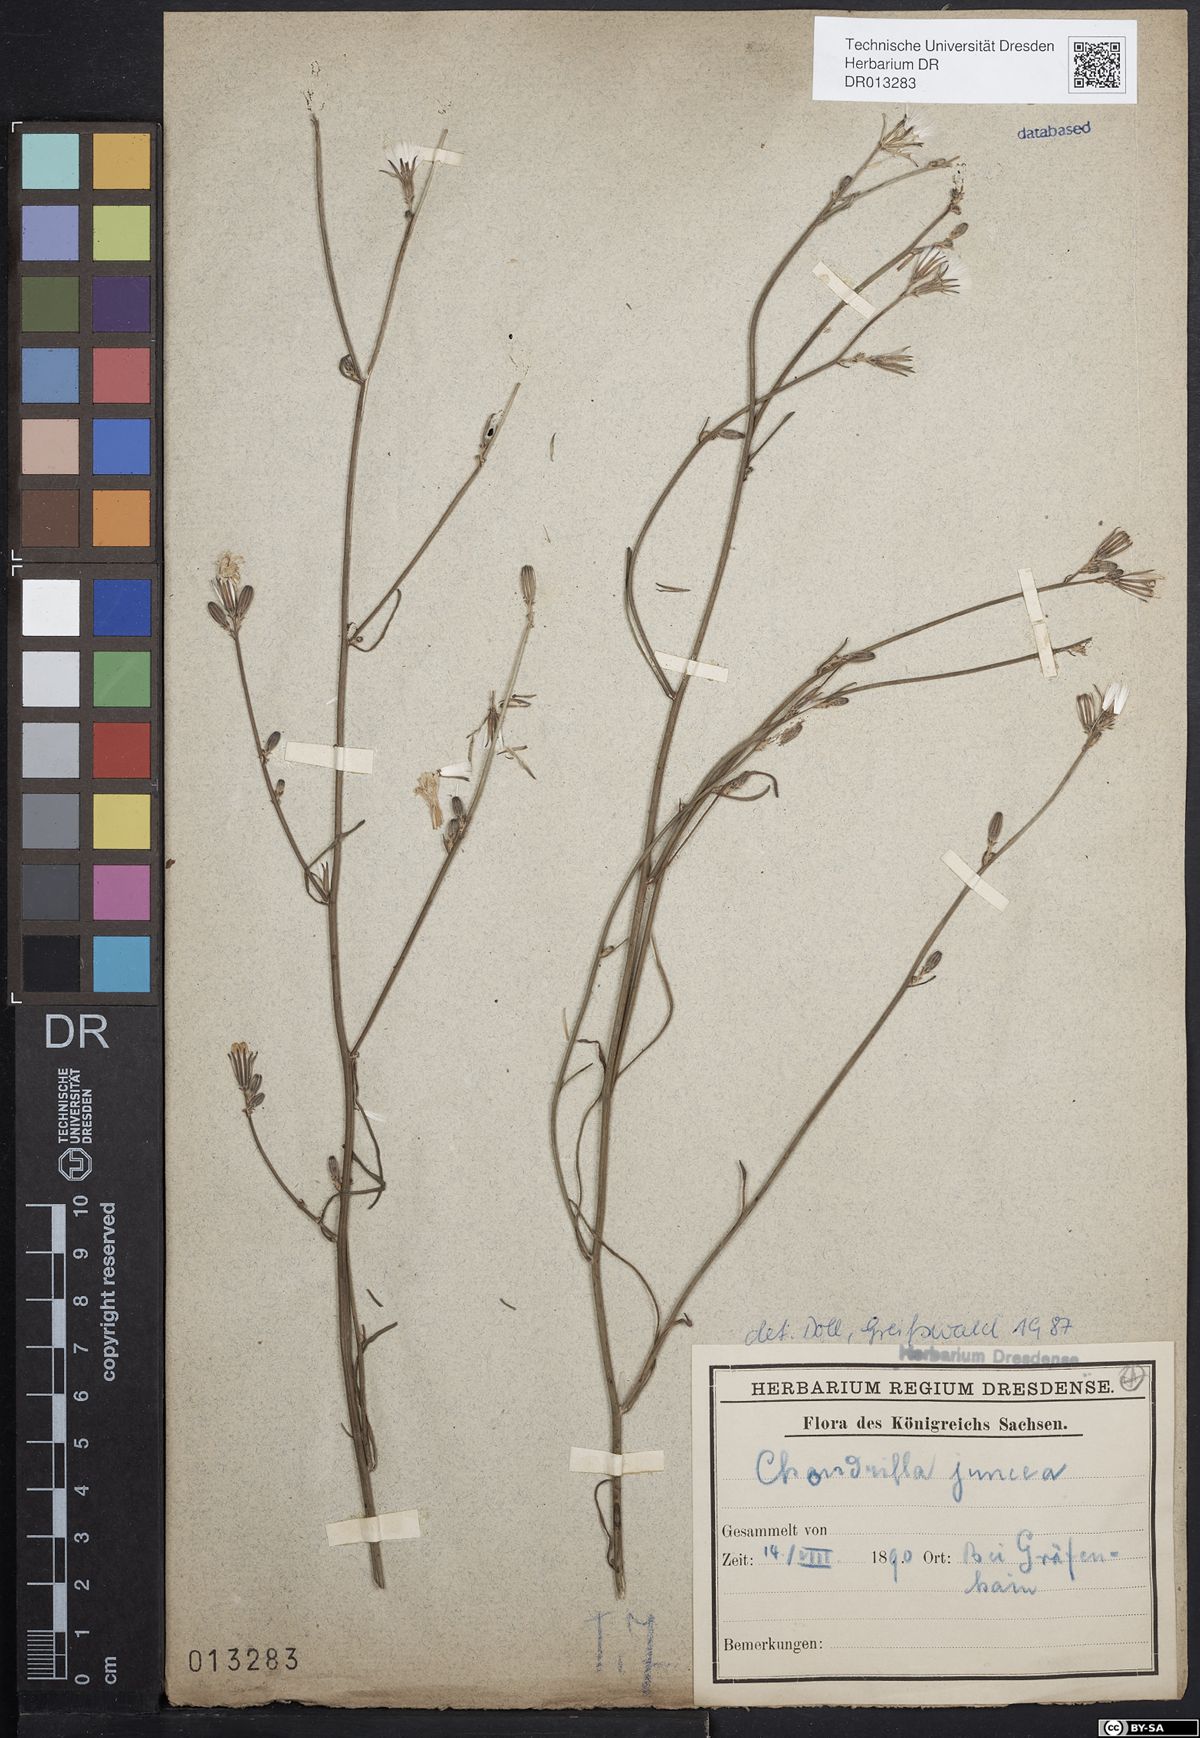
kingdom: Plantae
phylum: Tracheophyta
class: Magnoliopsida
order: Asterales
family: Asteraceae
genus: Chondrilla
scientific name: Chondrilla juncea
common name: Skeleton weed
